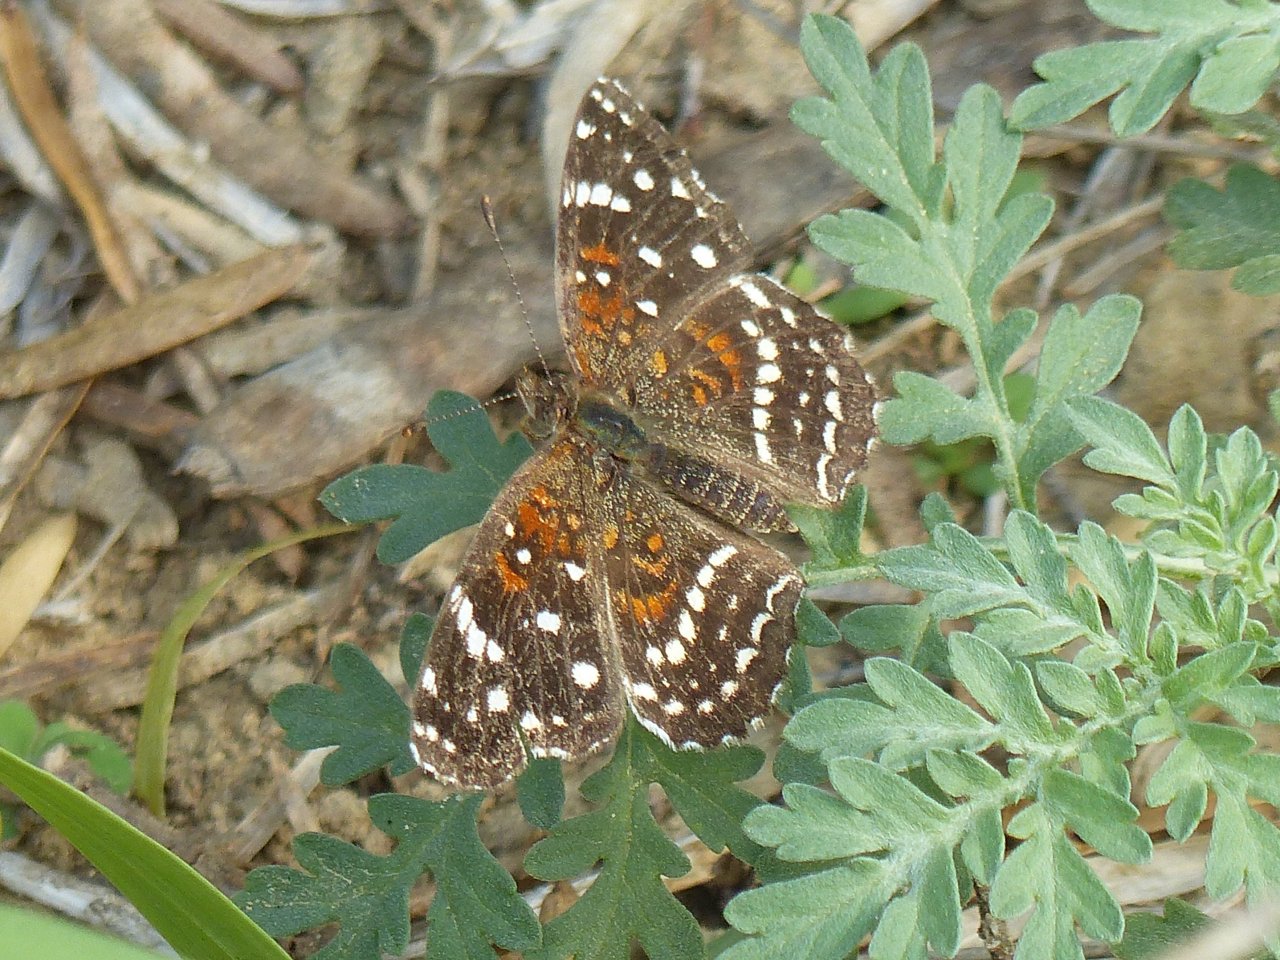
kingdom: Animalia
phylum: Arthropoda
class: Insecta
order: Lepidoptera
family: Nymphalidae
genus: Anthanassa
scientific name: Anthanassa texana
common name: Texan Crescent
